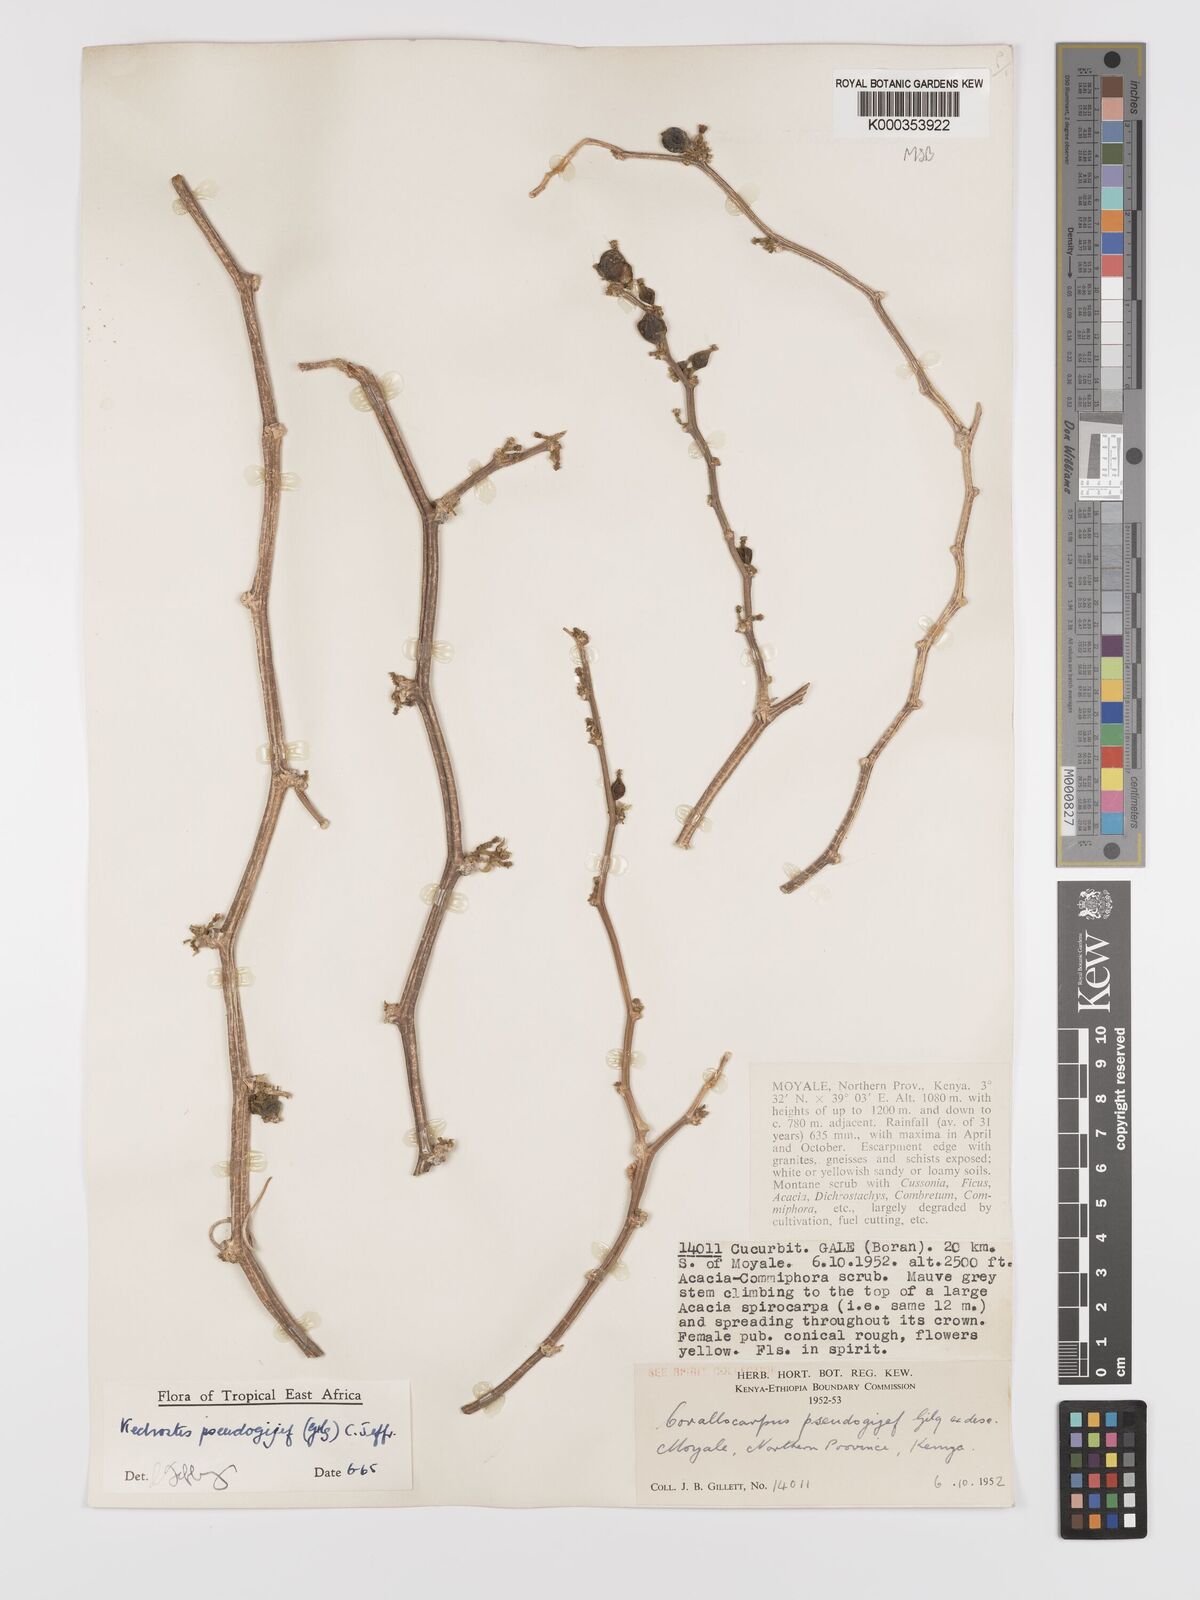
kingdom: Plantae
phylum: Tracheophyta
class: Magnoliopsida
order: Cucurbitales
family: Cucurbitaceae
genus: Kedrostis
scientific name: Kedrostis pseudogijef
